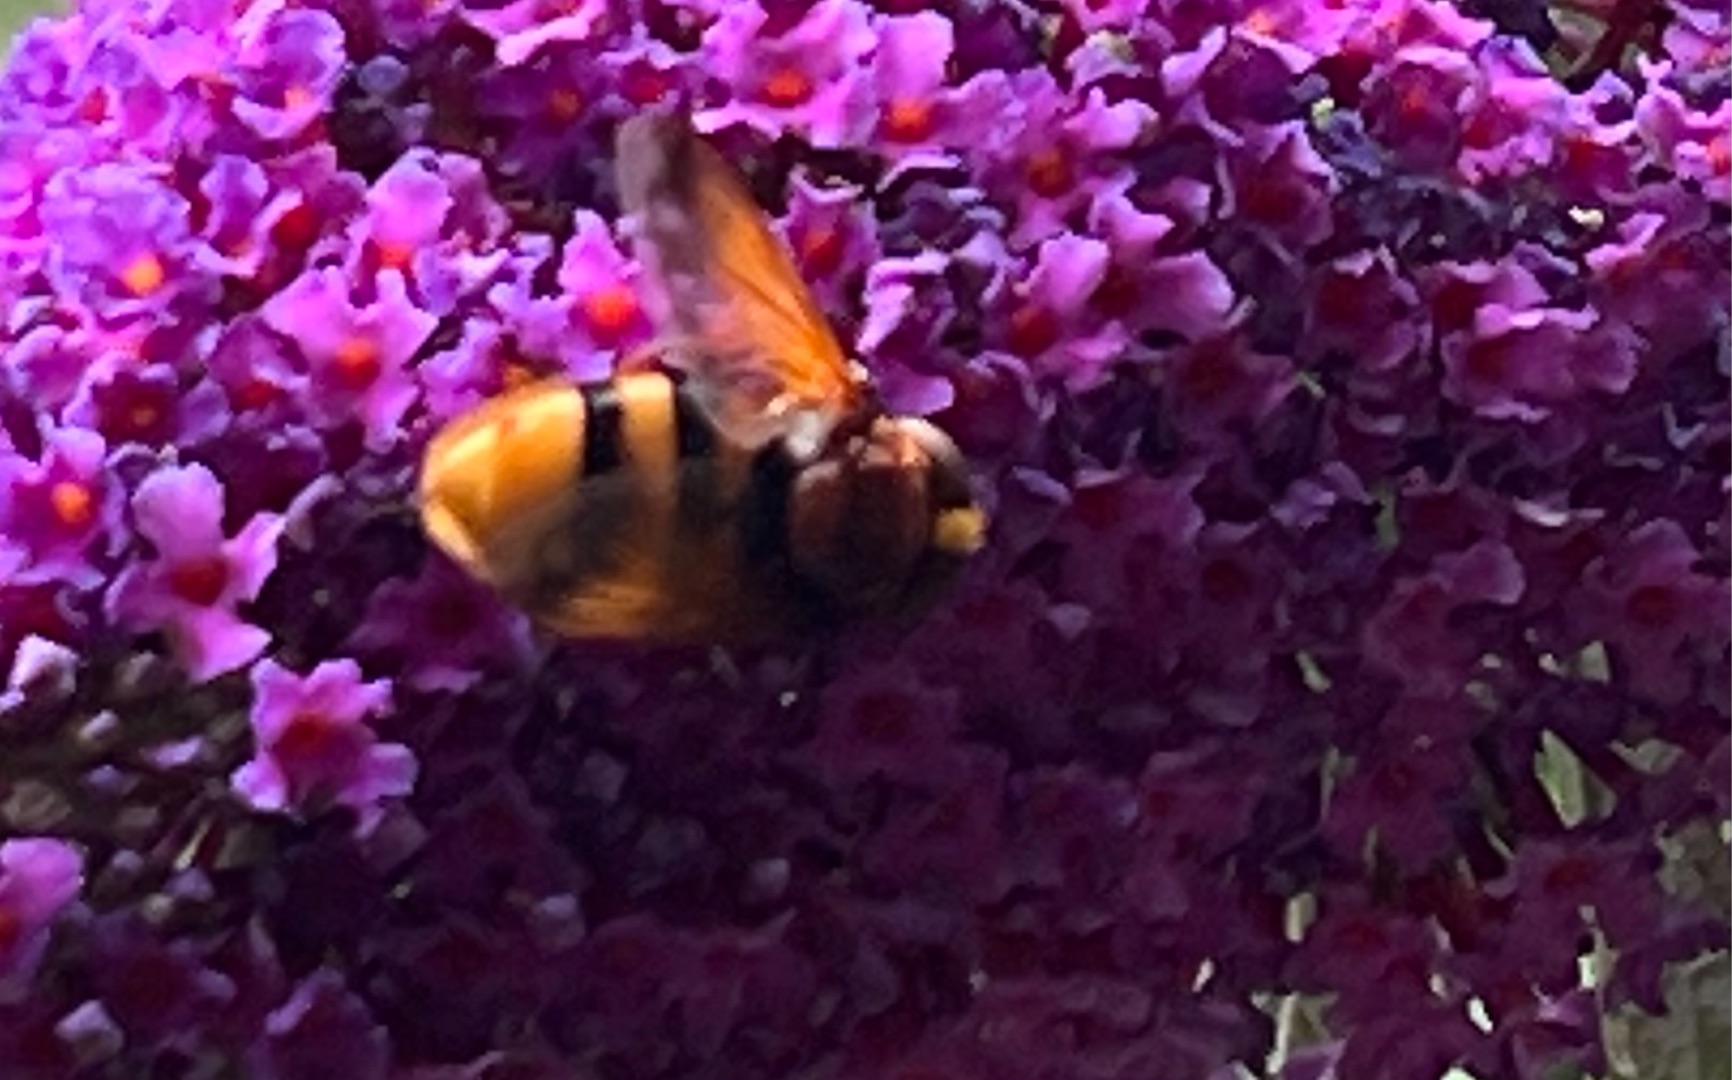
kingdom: Animalia
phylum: Arthropoda
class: Insecta
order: Diptera
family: Syrphidae
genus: Volucella
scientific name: Volucella zonaria
